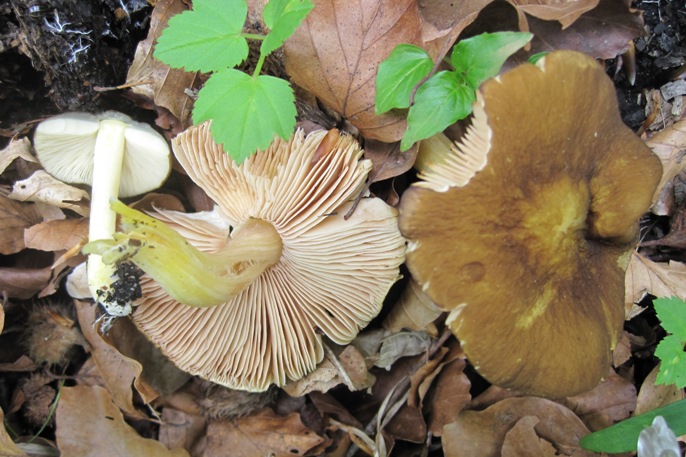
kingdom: Fungi
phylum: Basidiomycota
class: Agaricomycetes
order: Agaricales
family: Pluteaceae
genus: Pluteus
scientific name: Pluteus romellii
